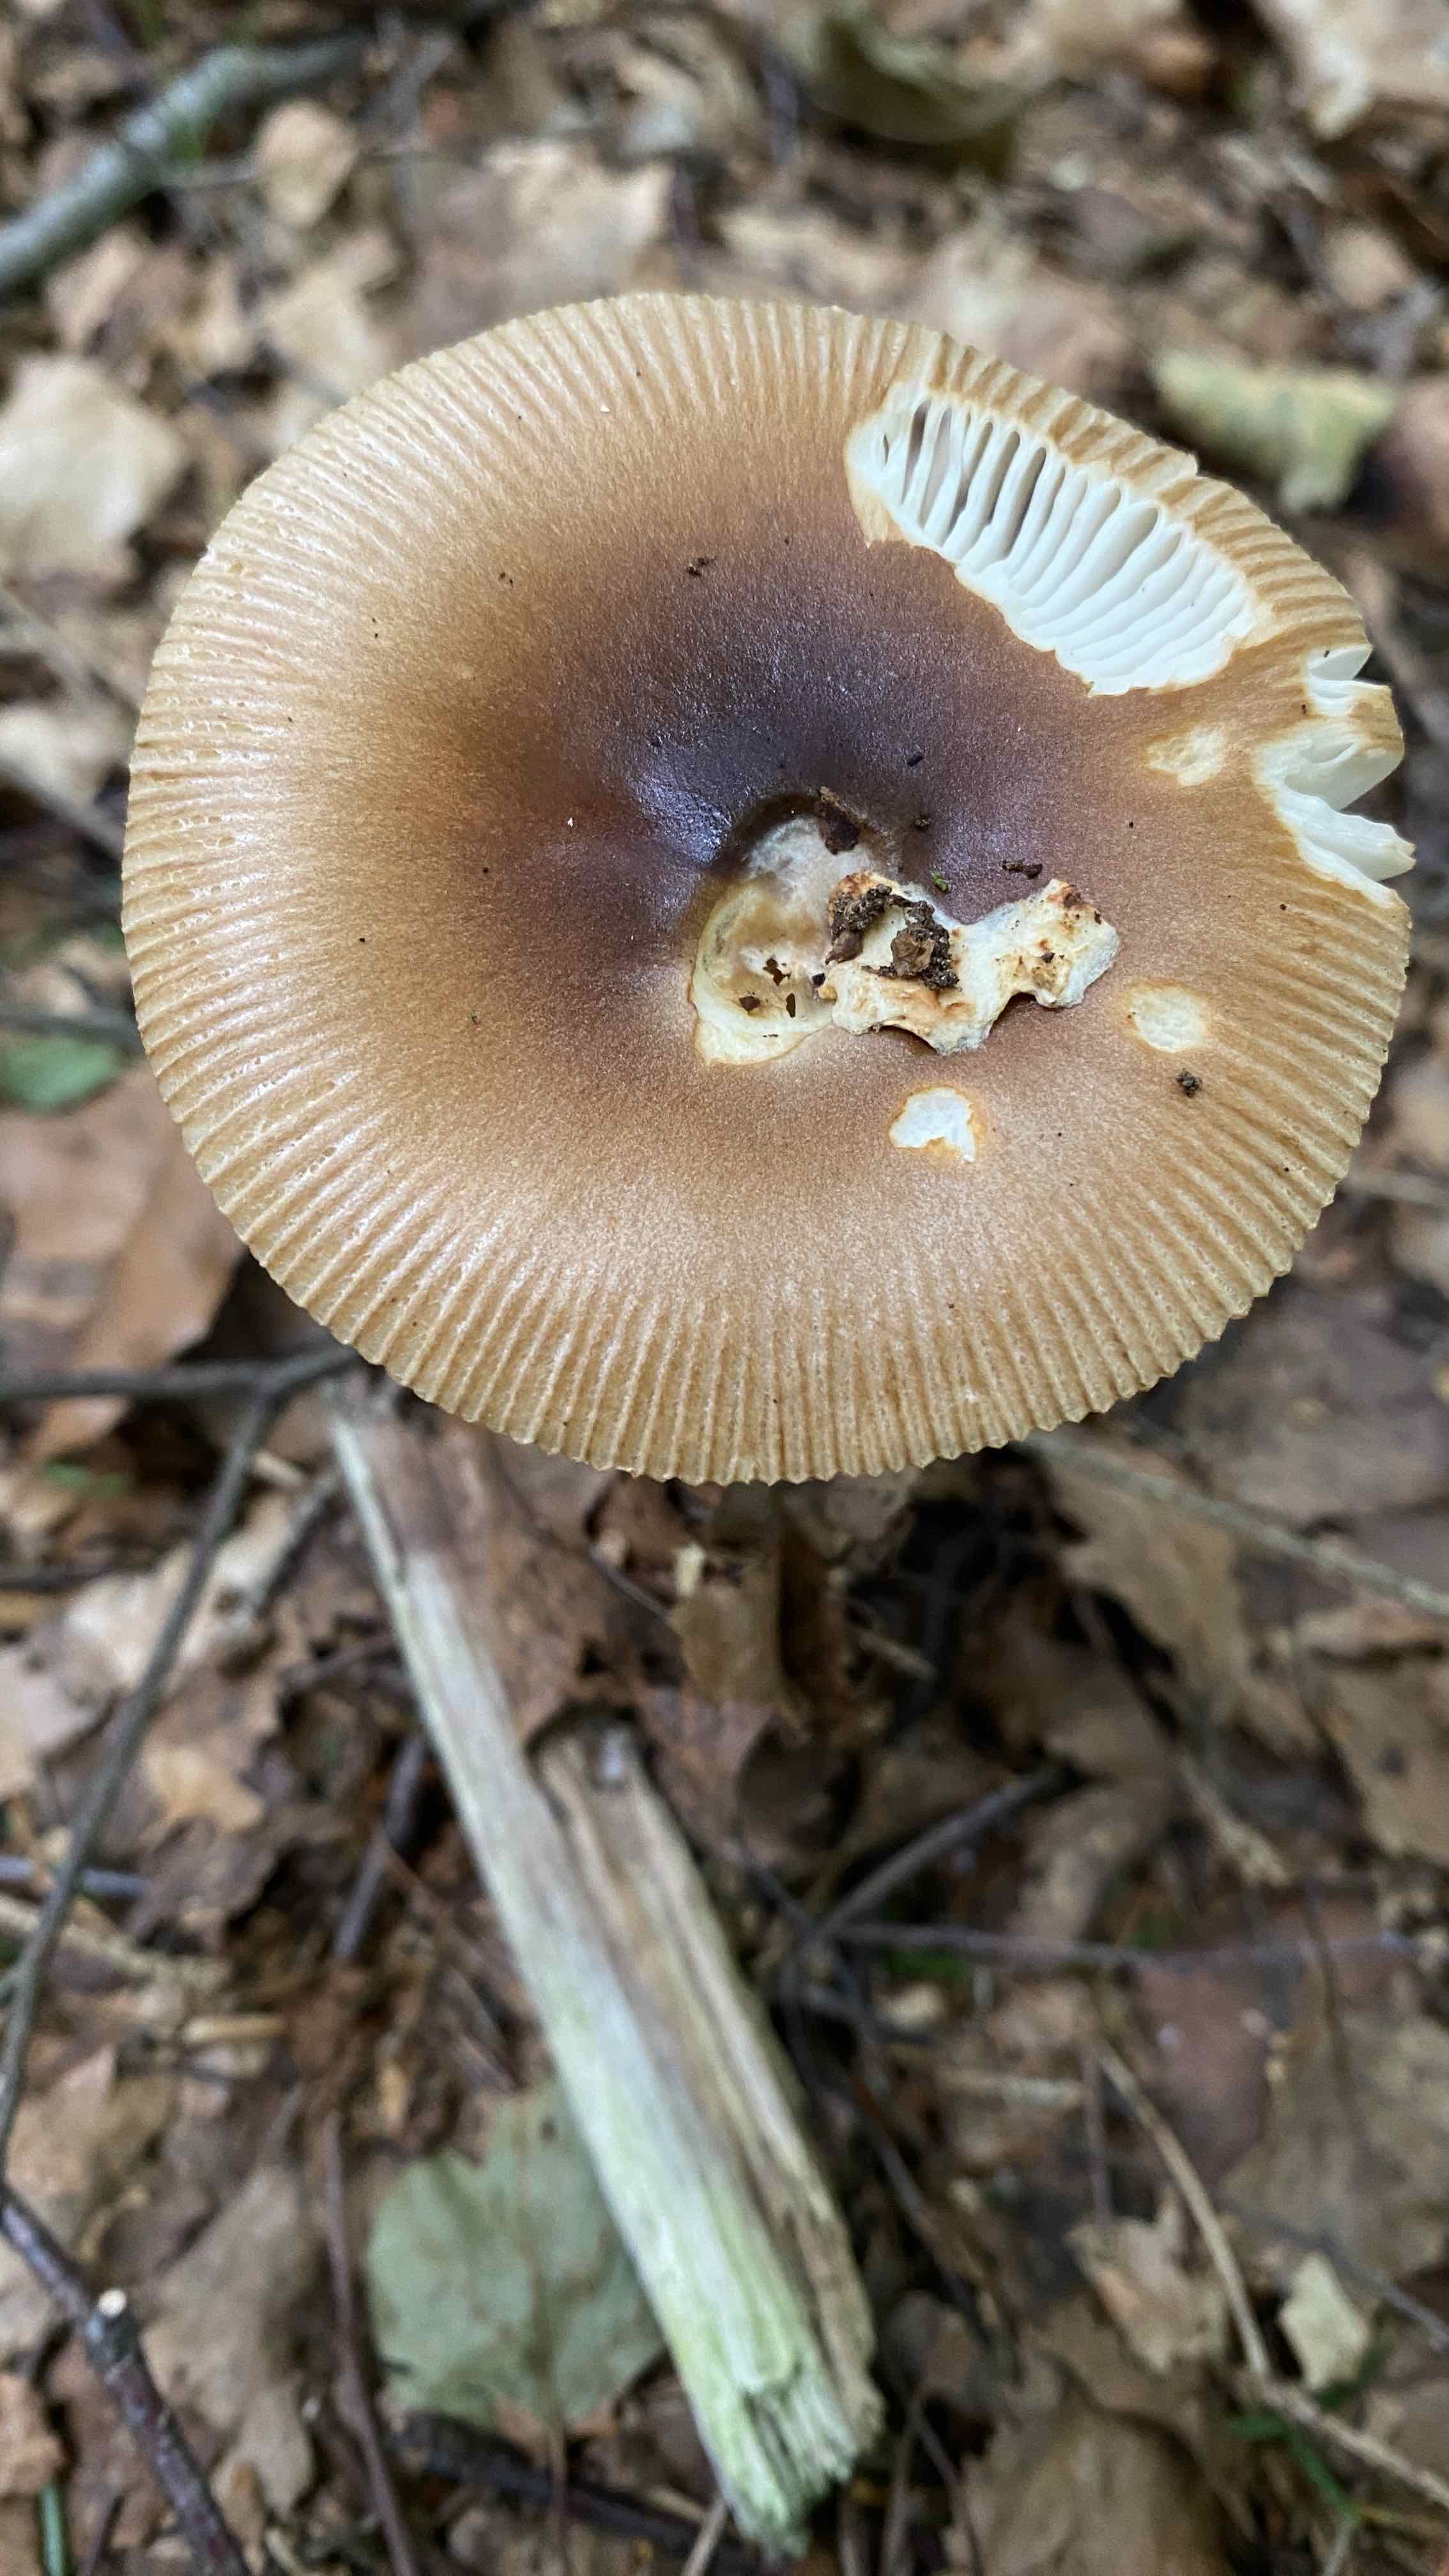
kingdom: Fungi
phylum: Basidiomycota
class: Agaricomycetes
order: Agaricales
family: Amanitaceae
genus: Amanita
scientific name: Amanita fulva
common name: brun kam-fluesvamp
